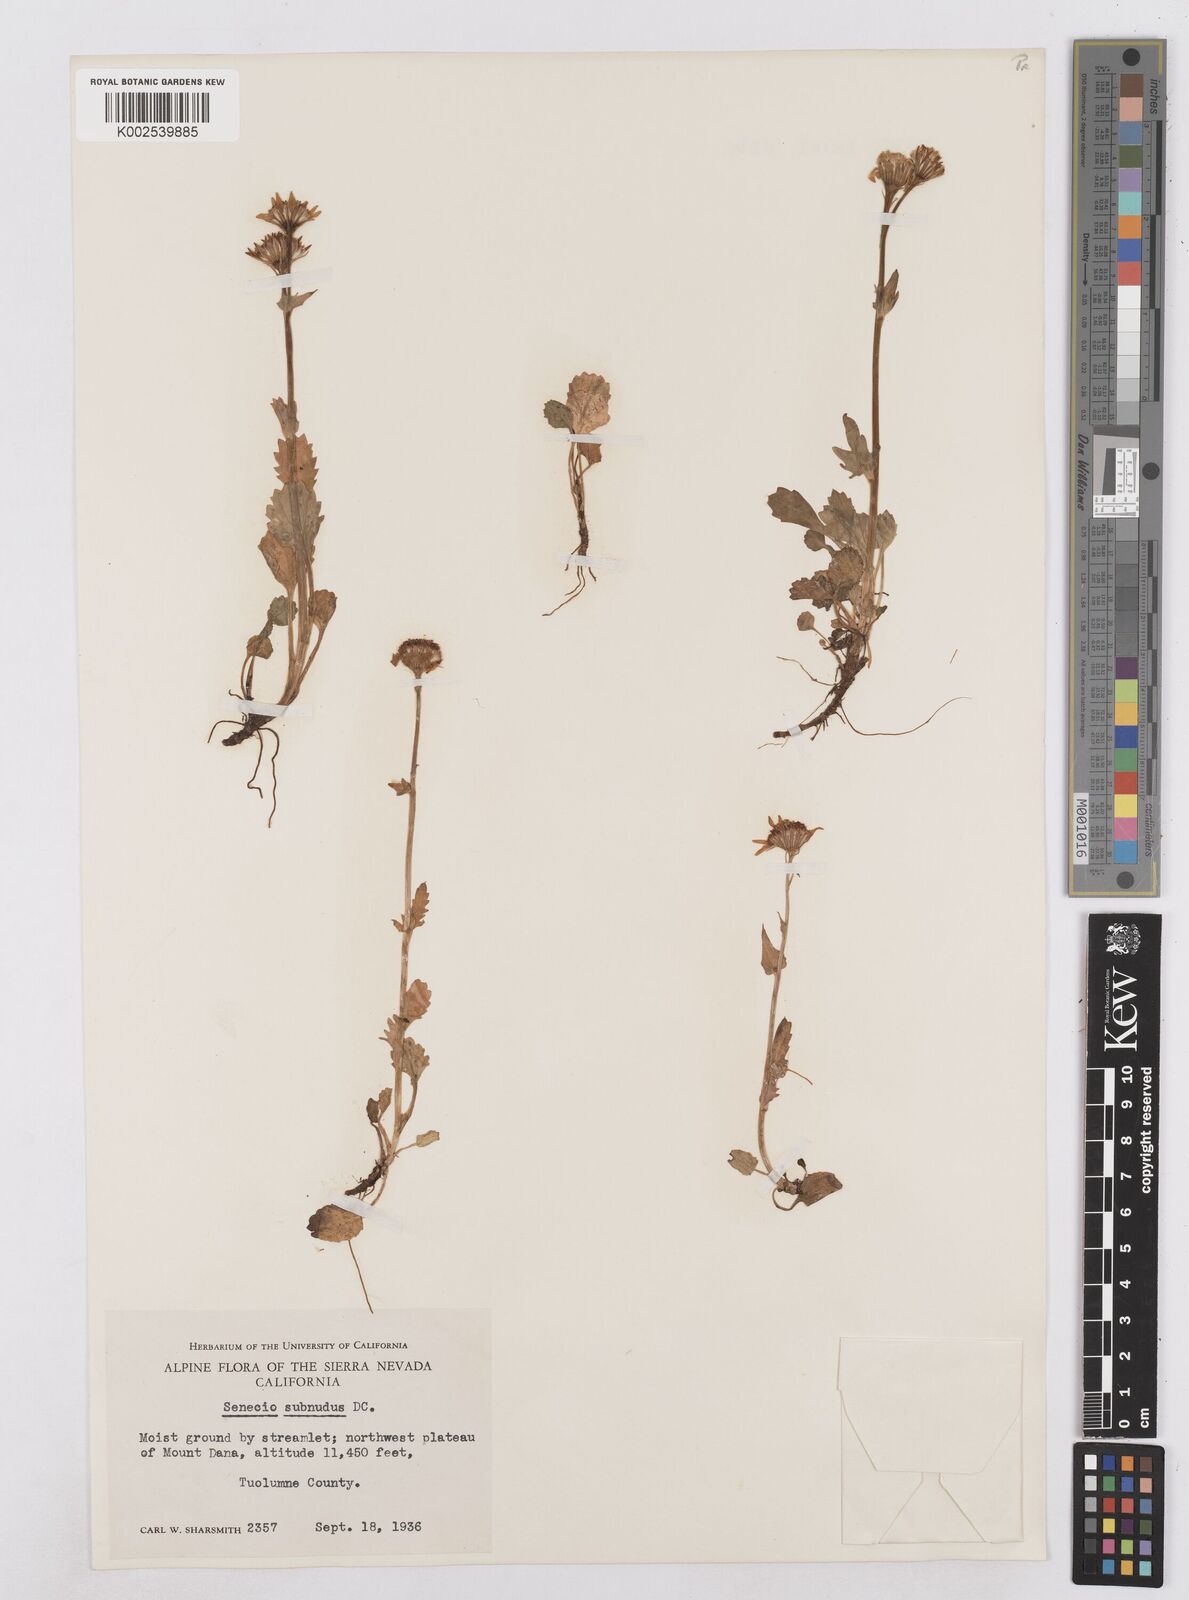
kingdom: Plantae
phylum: Tracheophyta
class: Magnoliopsida
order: Asterales
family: Asteraceae
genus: Packera
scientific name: Packera aurea
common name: Golden groundsel
